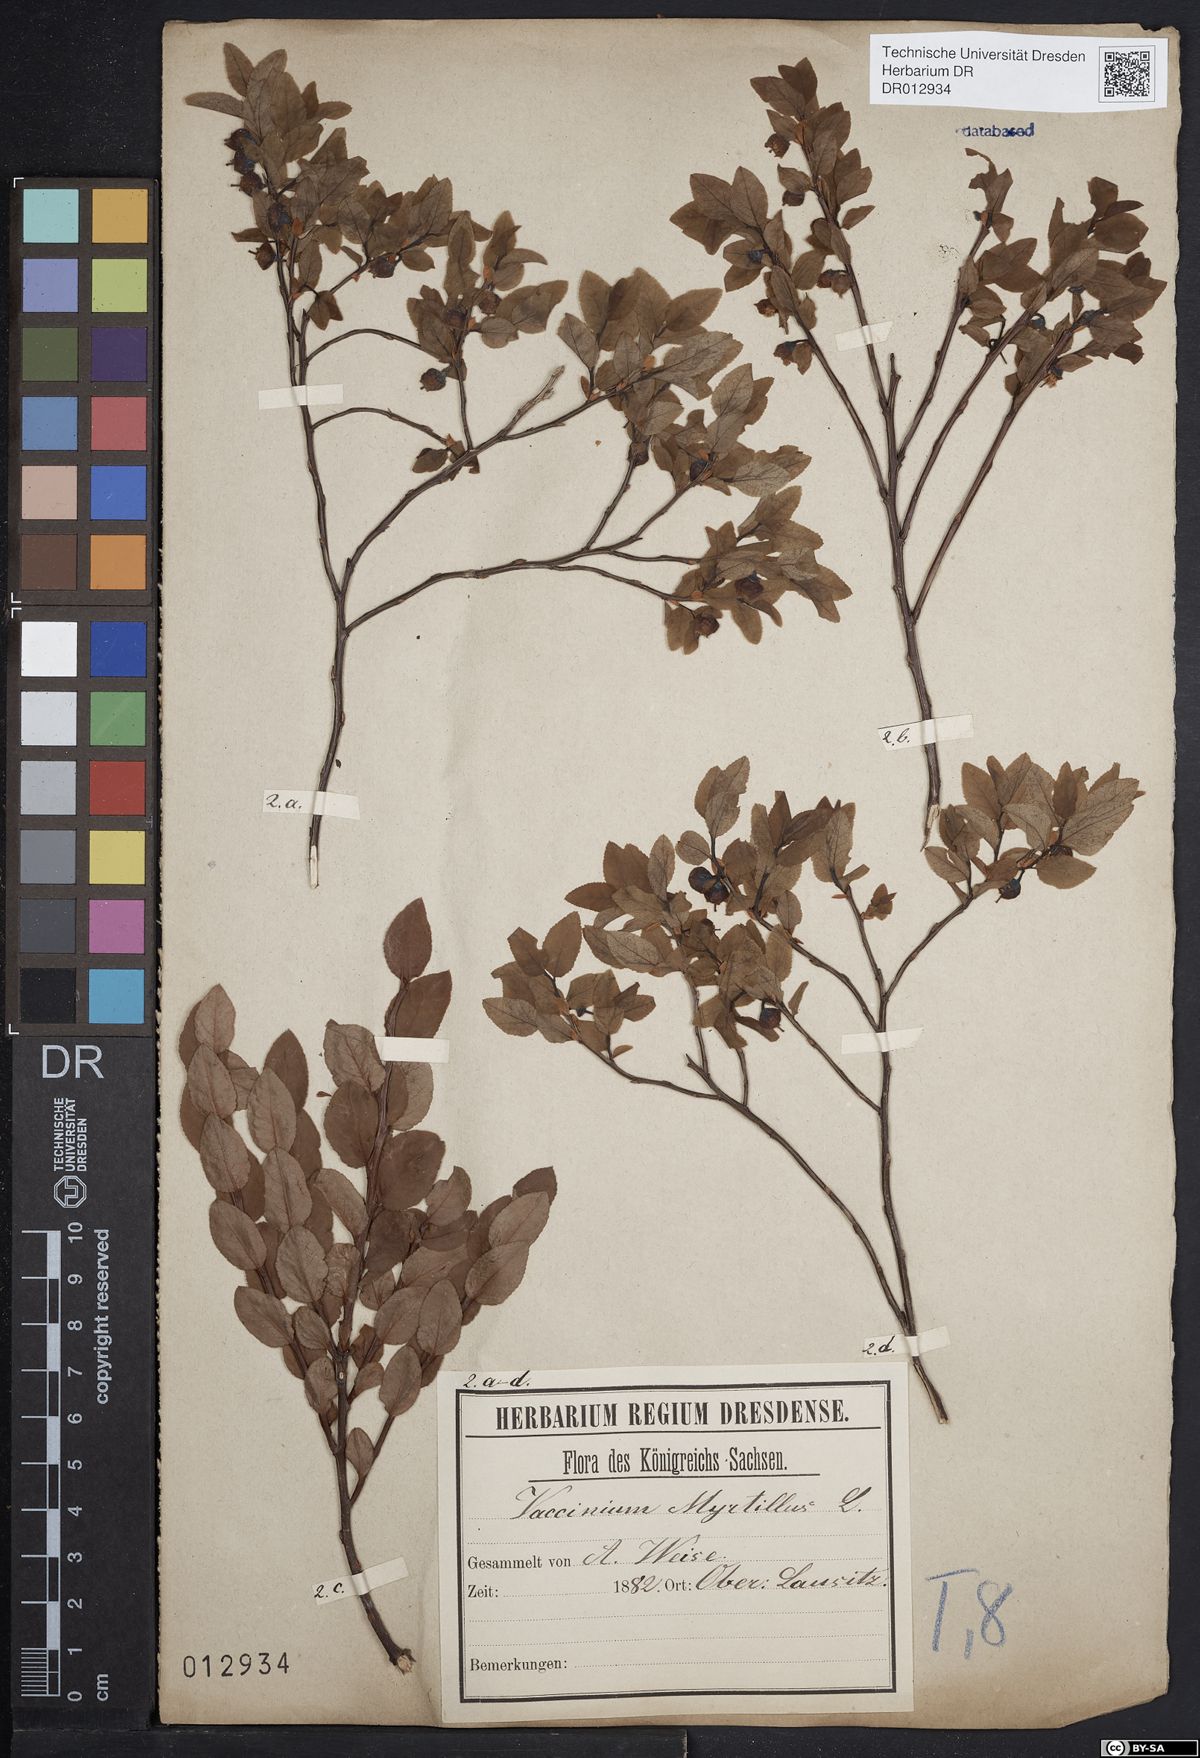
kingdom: Plantae
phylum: Tracheophyta
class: Magnoliopsida
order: Ericales
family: Ericaceae
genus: Vaccinium
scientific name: Vaccinium myrtillus
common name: Bilberry
